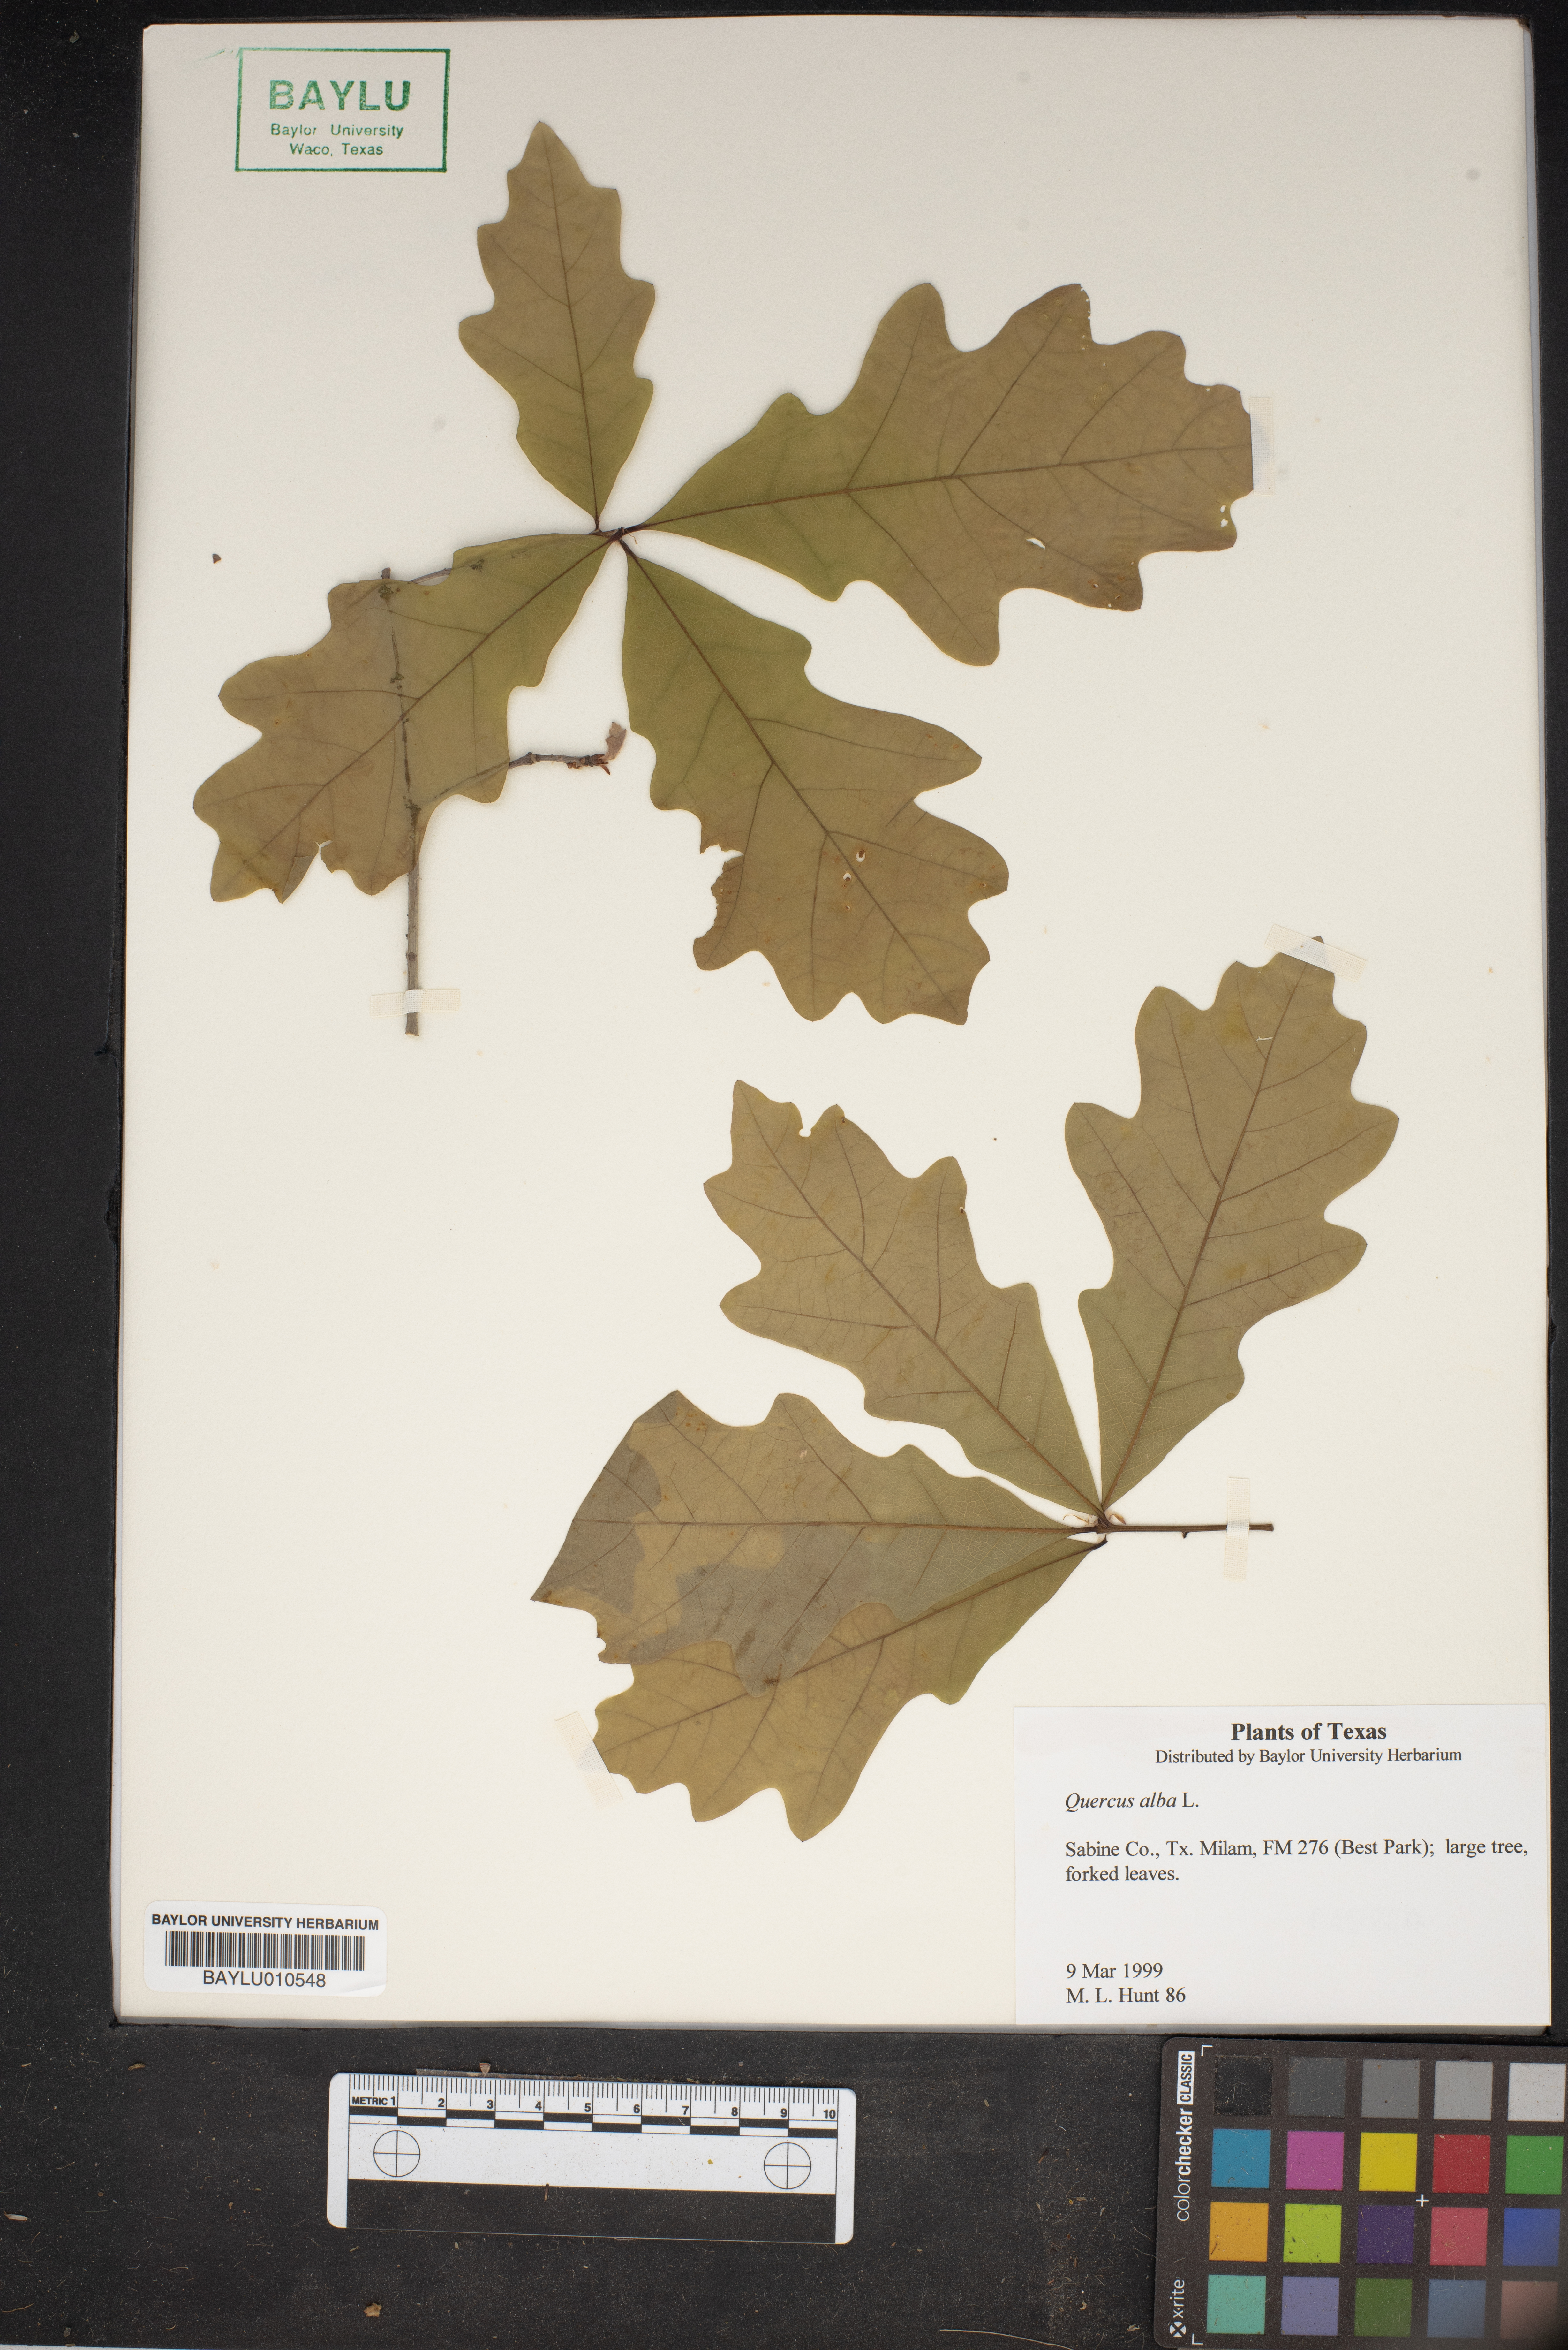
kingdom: Plantae
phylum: Tracheophyta
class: Magnoliopsida
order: Fagales
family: Fagaceae
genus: Quercus
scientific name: Quercus alba
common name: White oak
